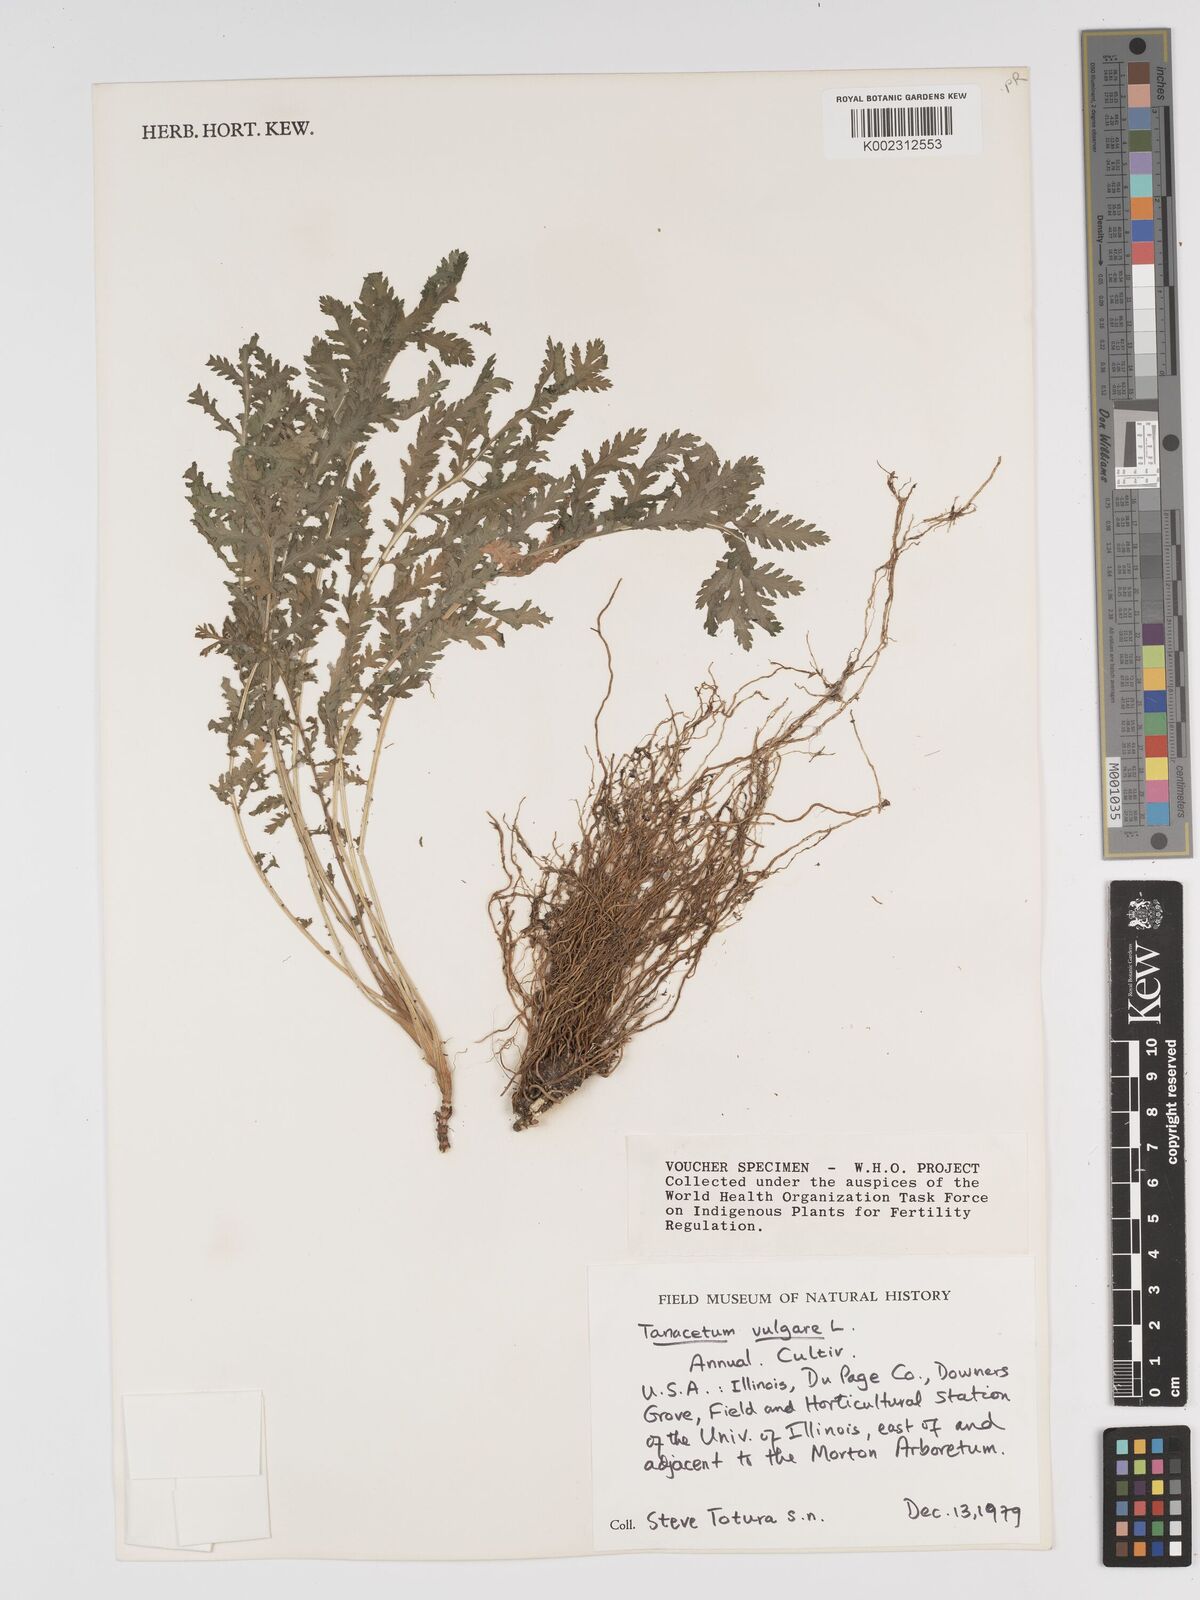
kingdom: Plantae
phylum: Tracheophyta
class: Magnoliopsida
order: Asterales
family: Asteraceae
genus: Tanacetum
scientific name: Tanacetum vulgare
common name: Common tansy
